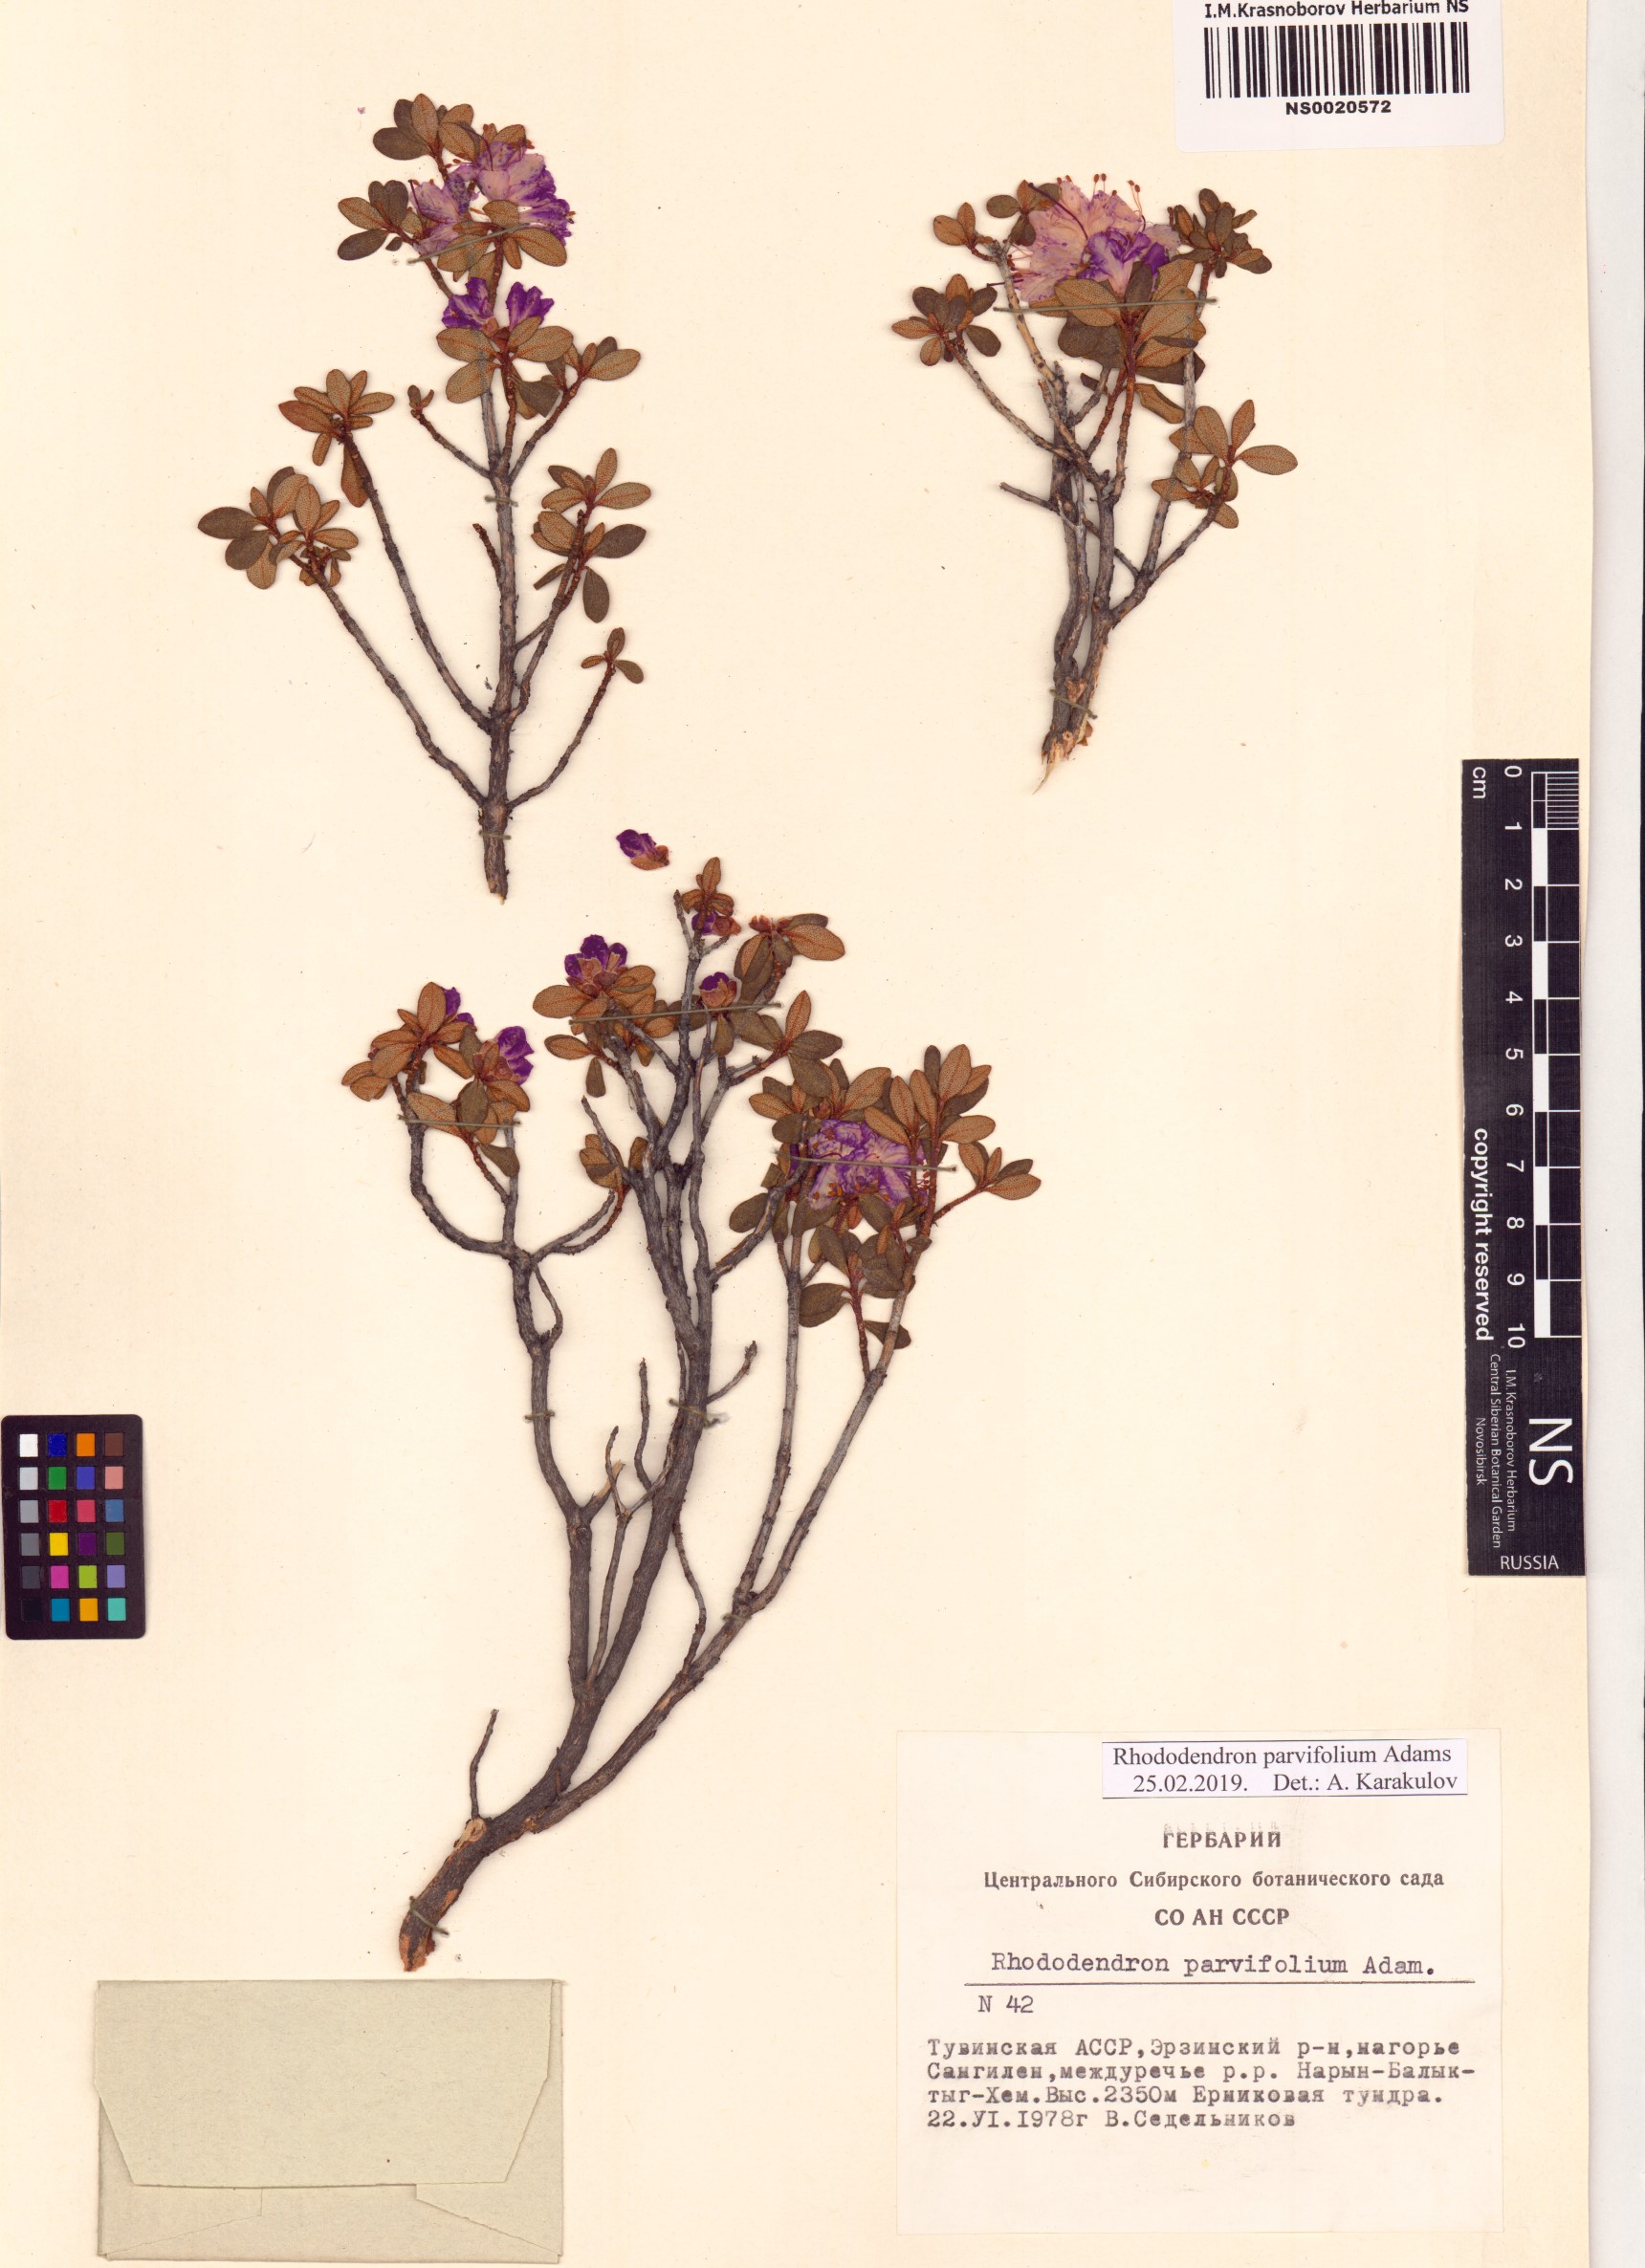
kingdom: Plantae
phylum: Tracheophyta
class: Magnoliopsida
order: Ericales
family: Ericaceae
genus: Rhododendron
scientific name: Rhododendron parvifolium
